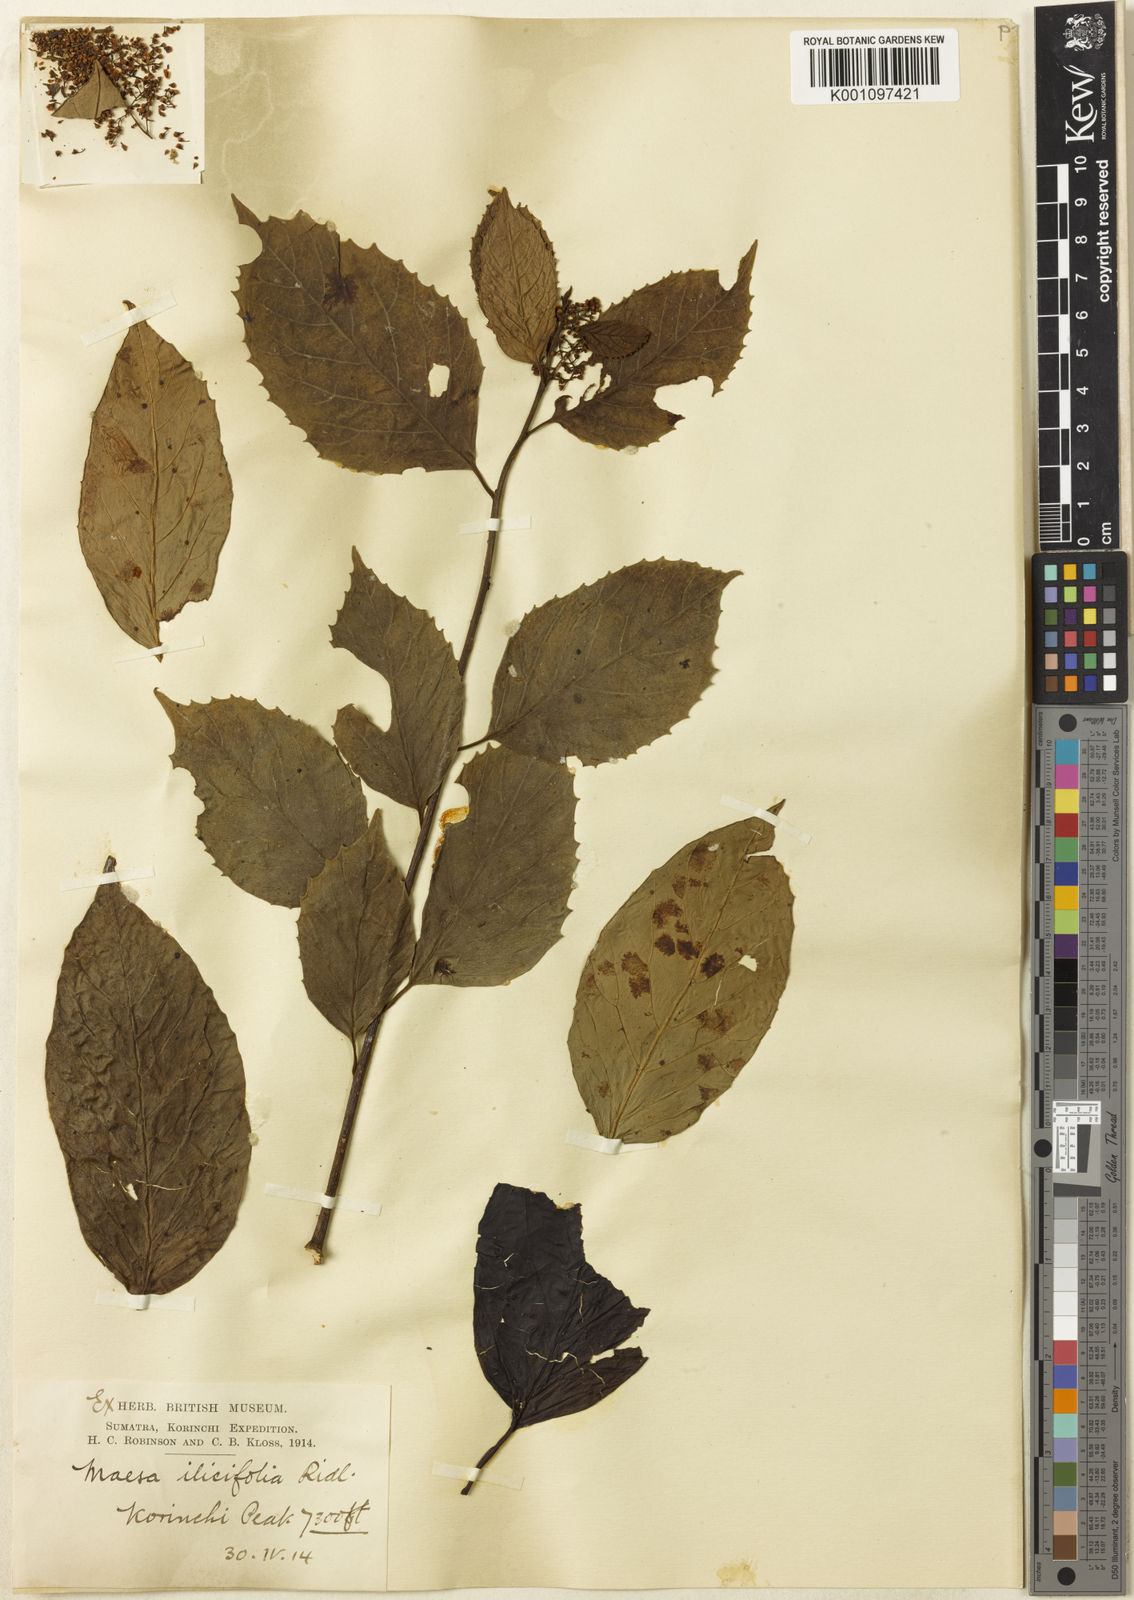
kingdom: Plantae
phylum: Tracheophyta
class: Magnoliopsida
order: Ericales
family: Primulaceae
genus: Maesa
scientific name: Maesa ilicifolia
